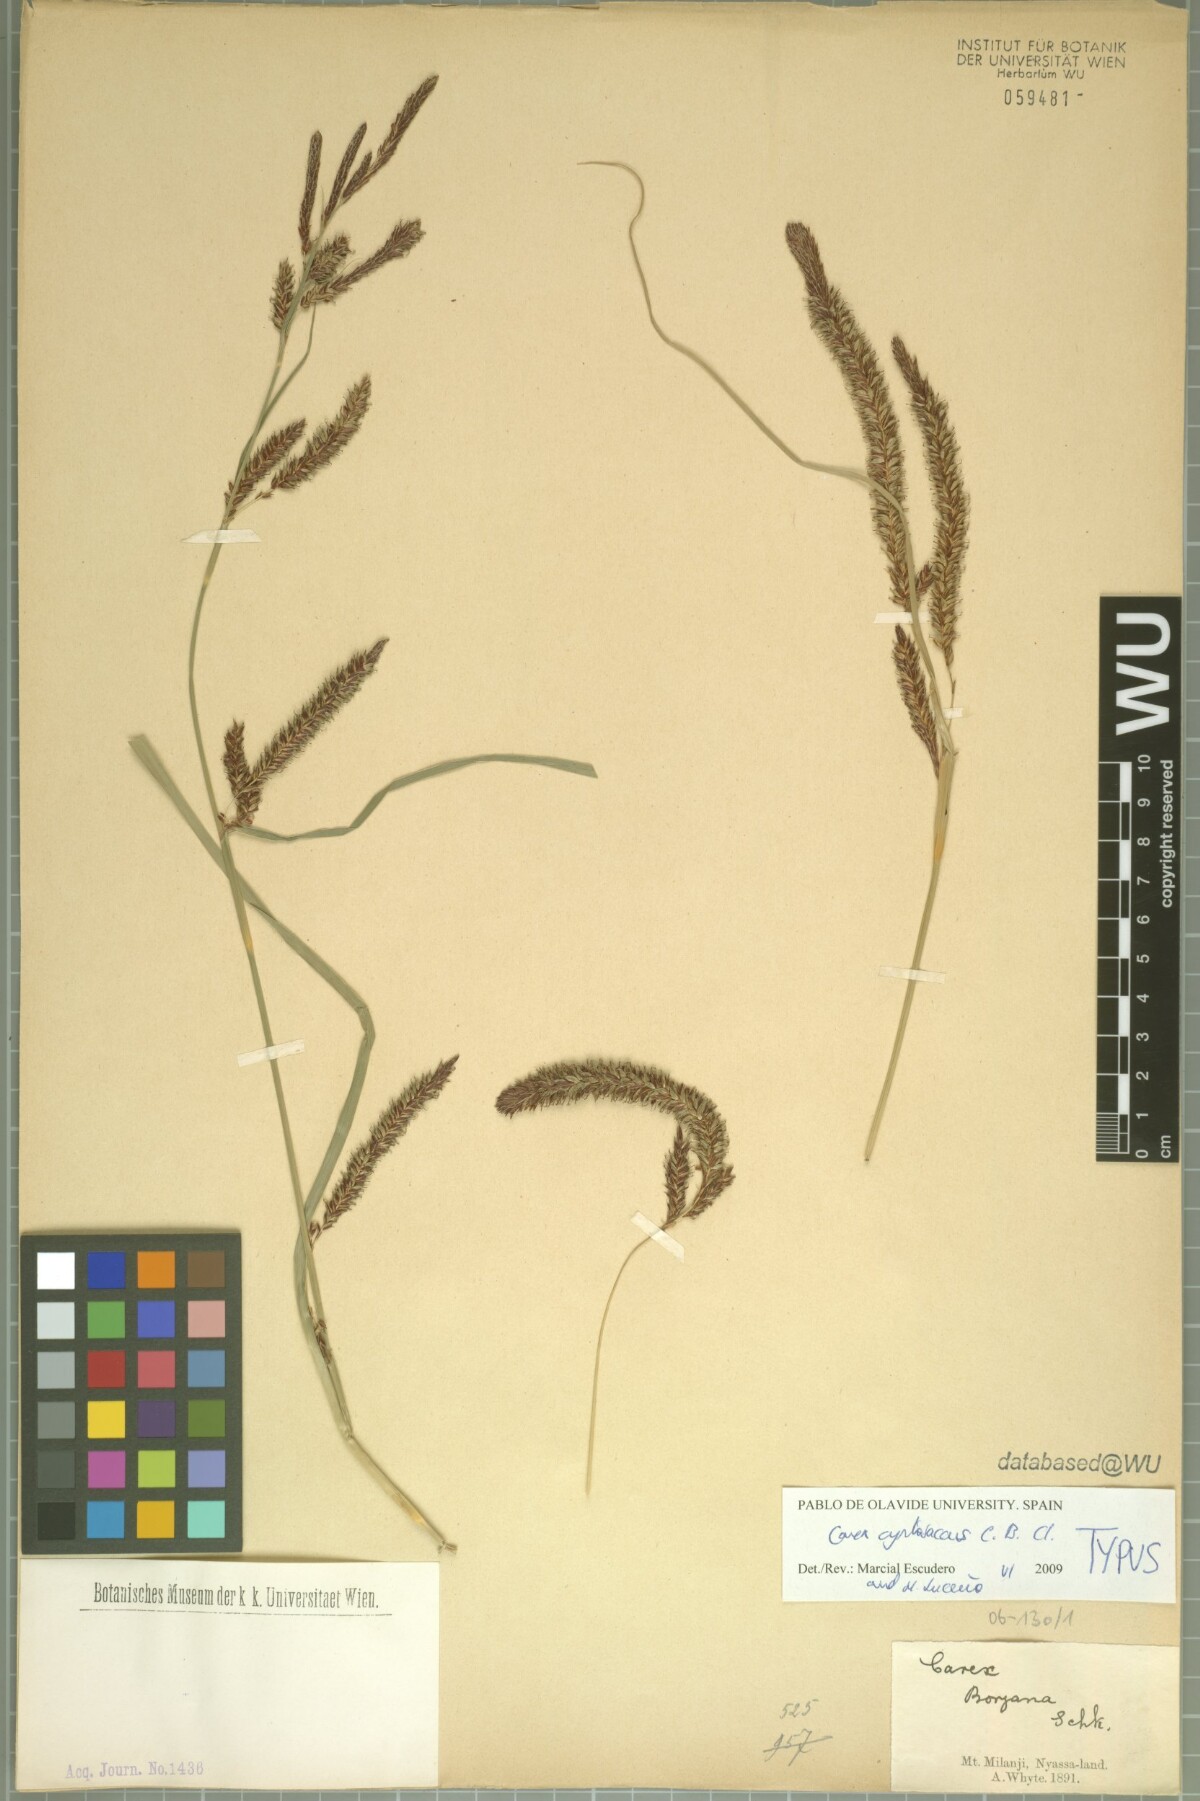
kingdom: Plantae
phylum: Tracheophyta
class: Liliopsida
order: Poales
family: Cyperaceae
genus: Carex
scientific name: Carex vallis-rosetto
